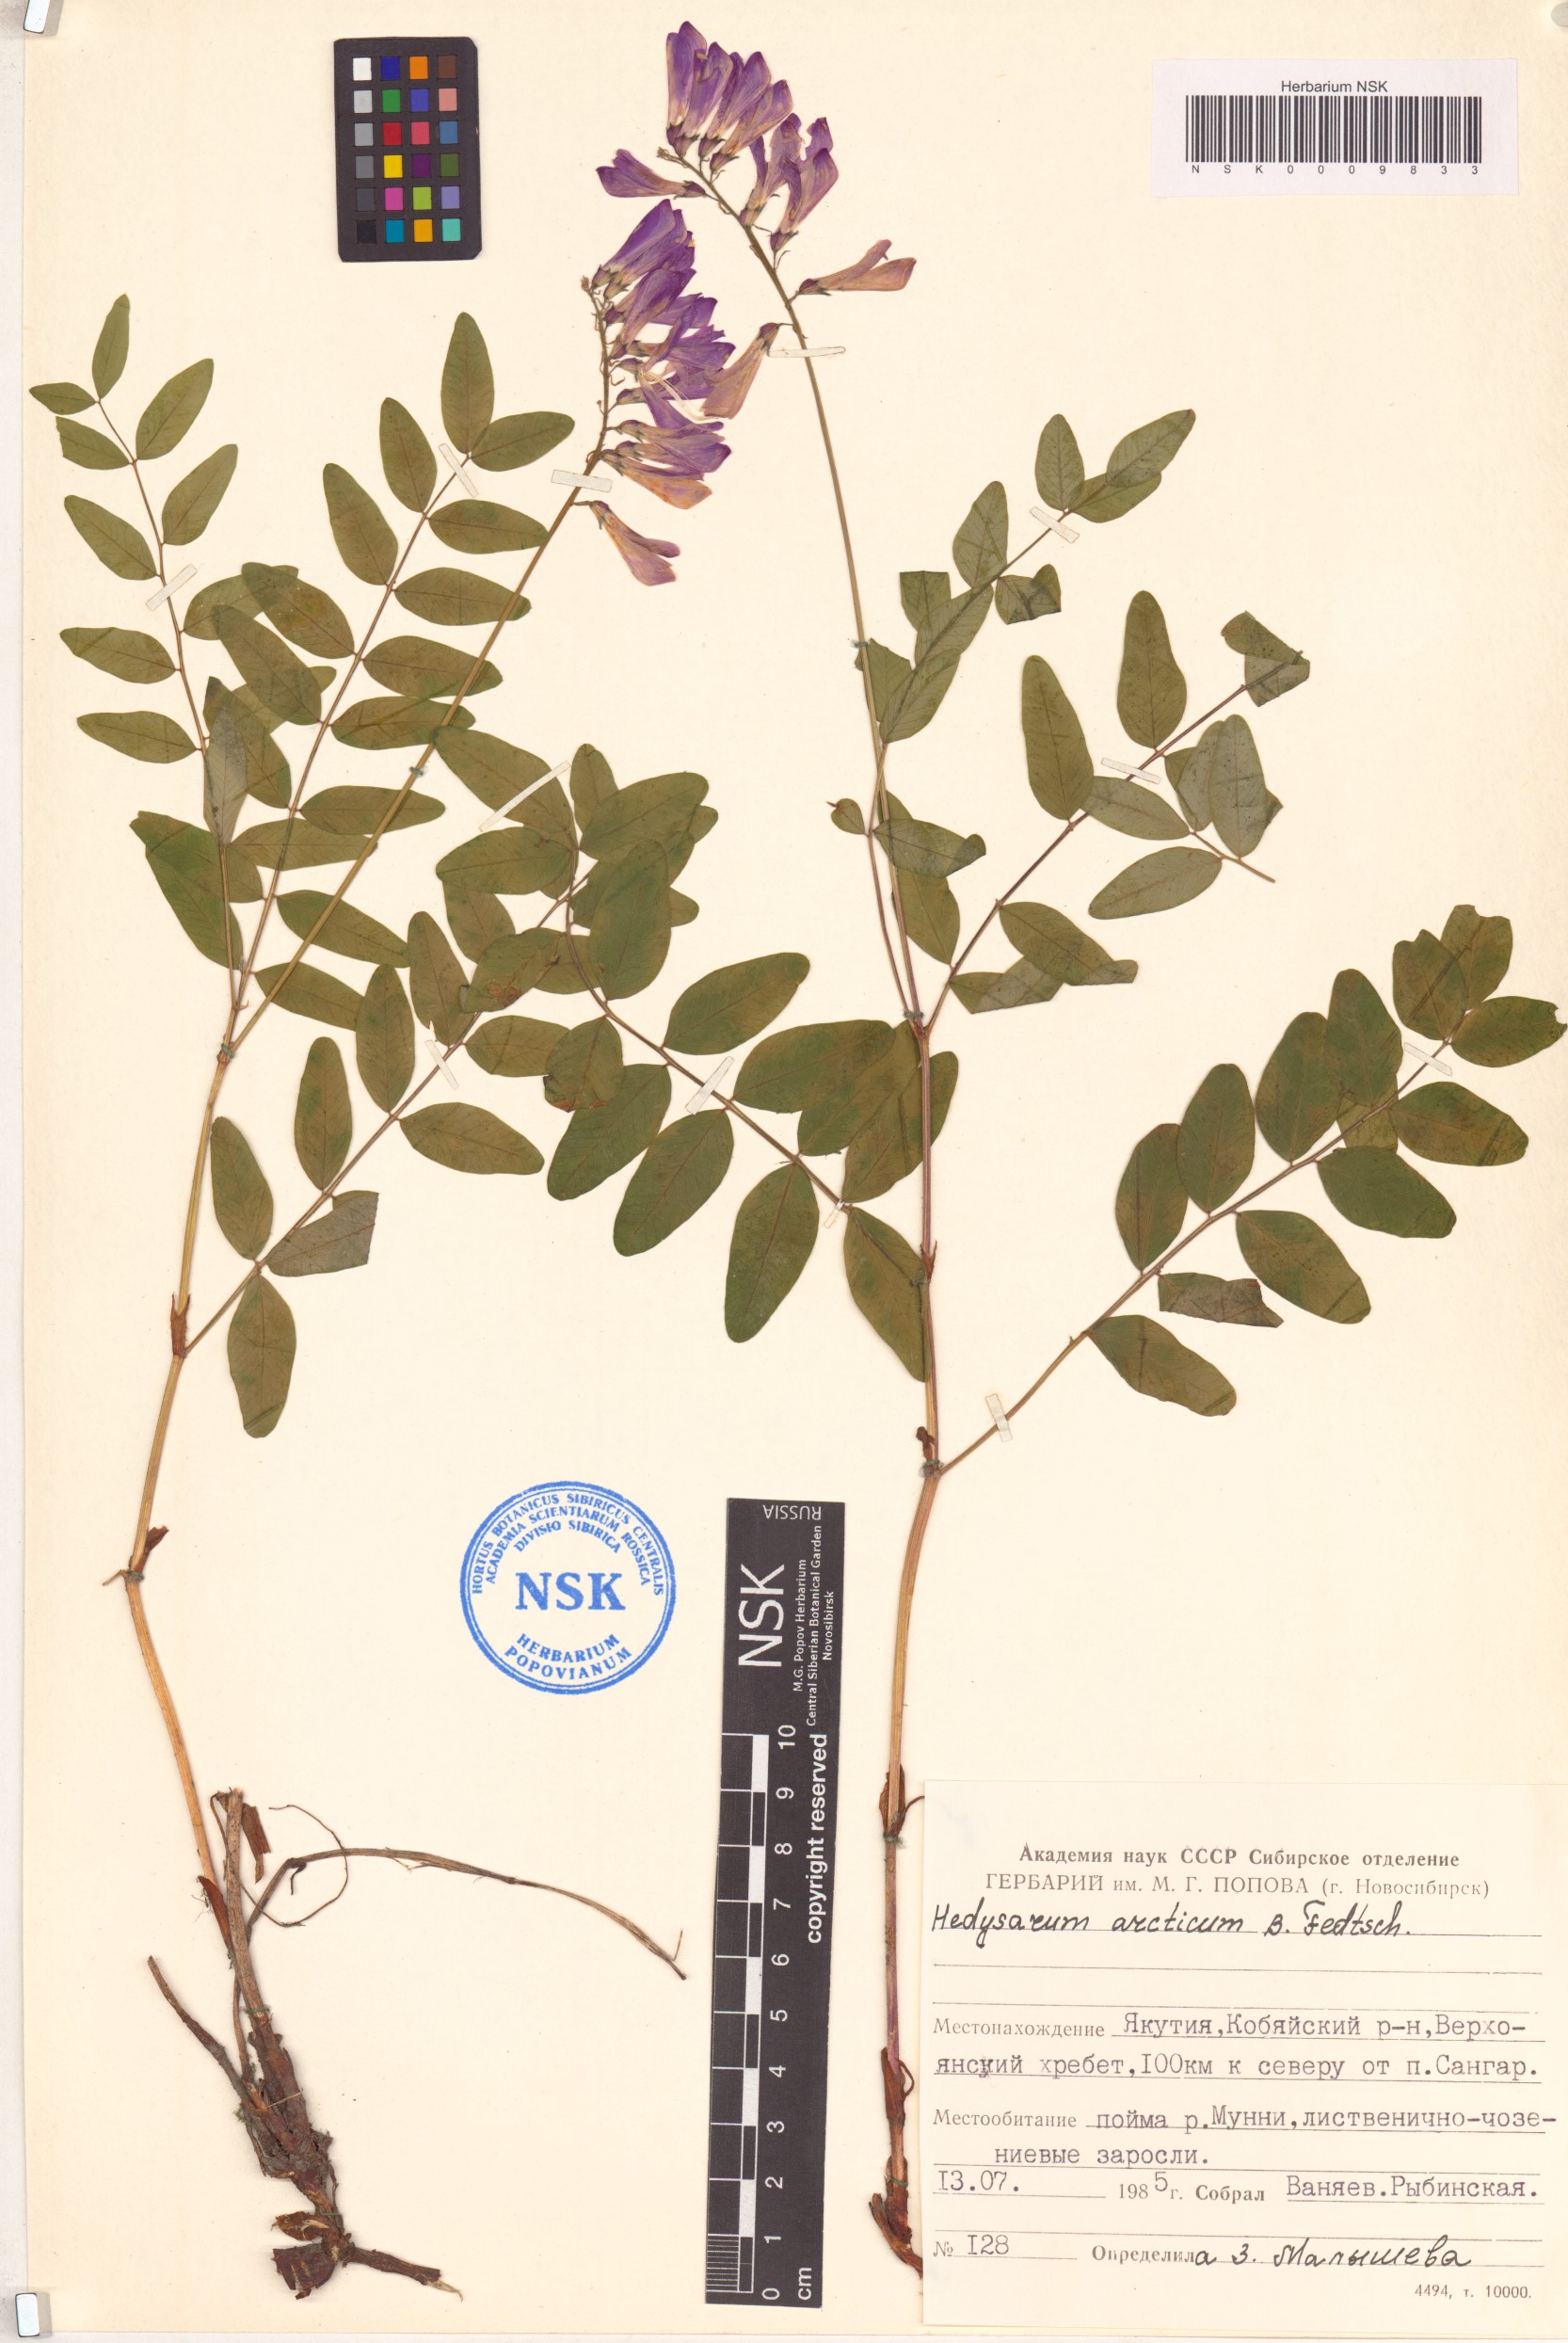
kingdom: Plantae
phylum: Tracheophyta
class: Magnoliopsida
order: Fabales
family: Fabaceae
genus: Hedysarum
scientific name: Hedysarum hedysaroides
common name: Alpine french-honeysuckle
